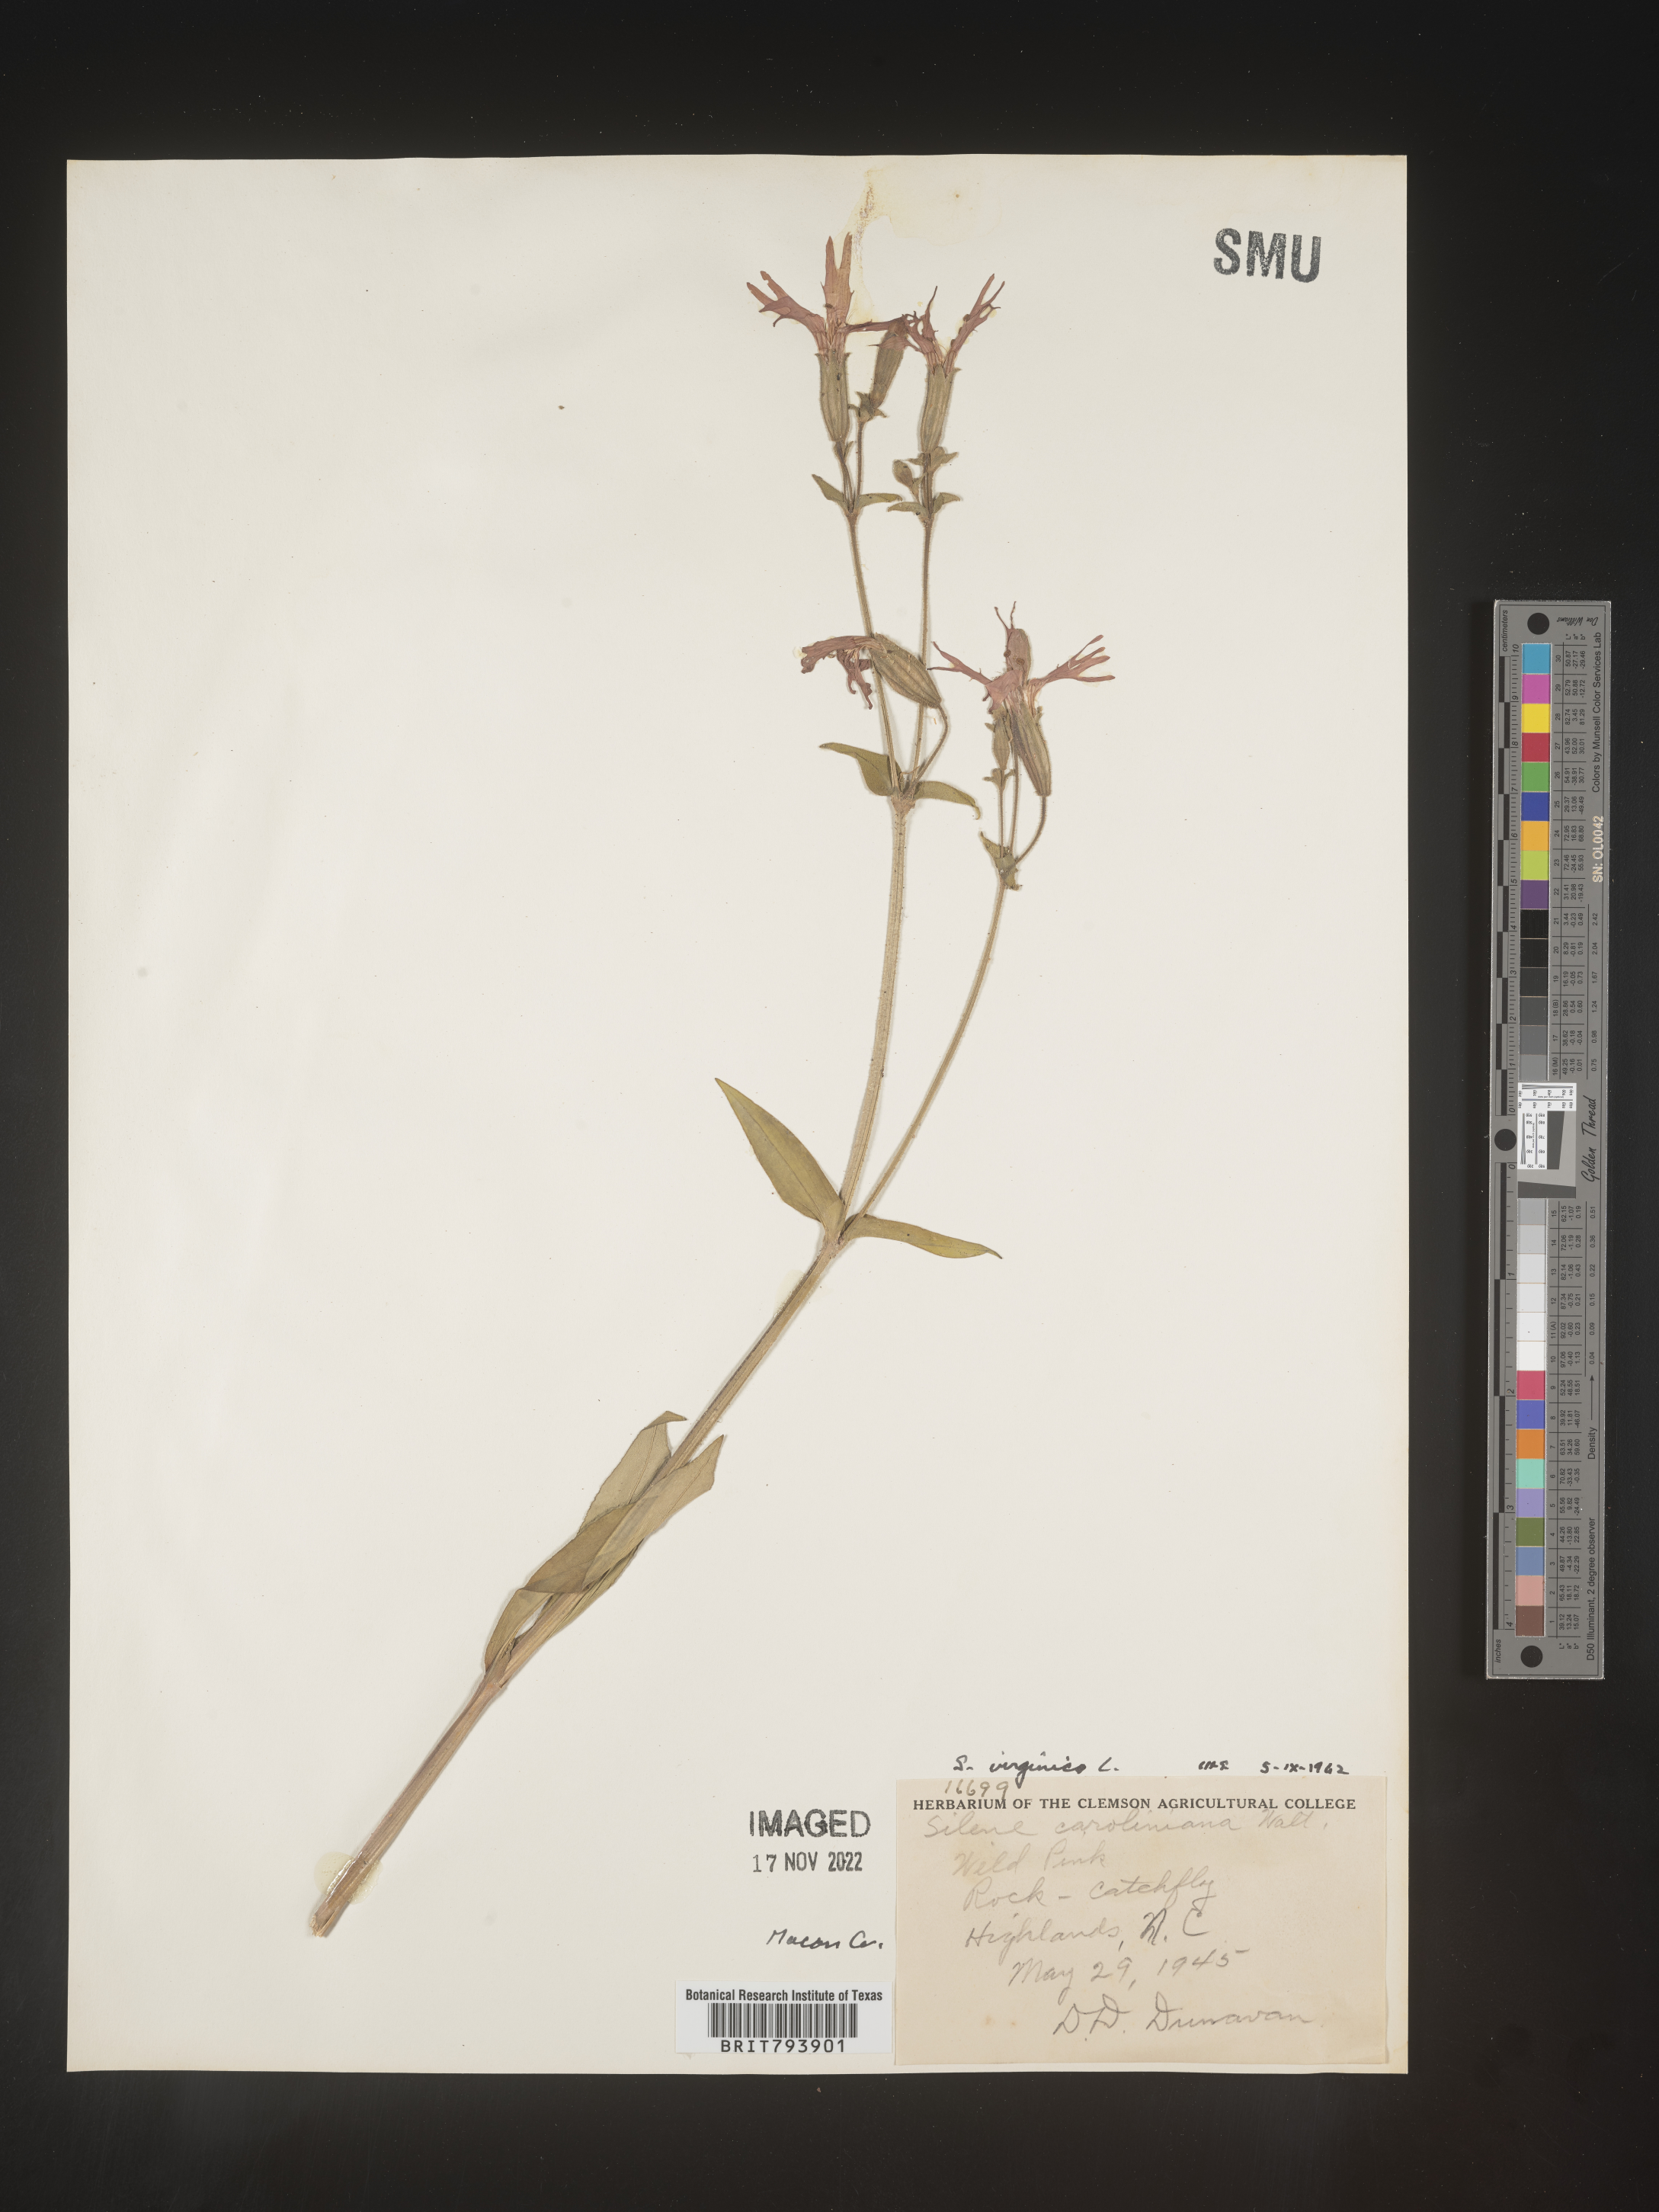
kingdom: Plantae
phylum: Tracheophyta
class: Magnoliopsida
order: Caryophyllales
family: Caryophyllaceae
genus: Silene
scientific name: Silene virginica
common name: Fire-pink
